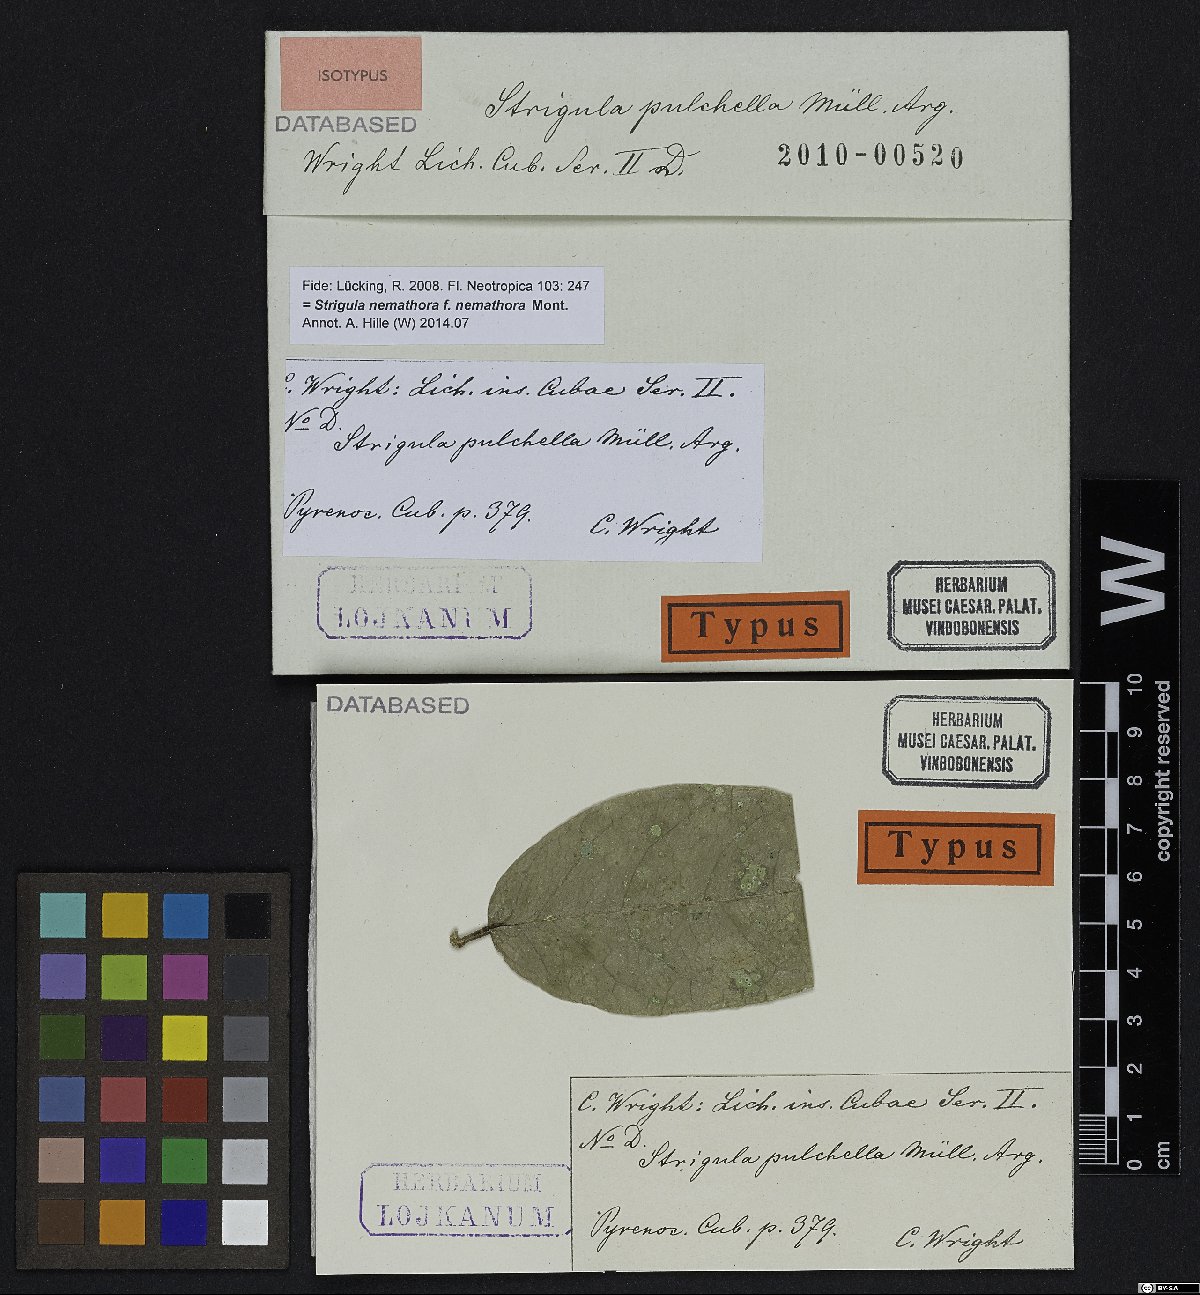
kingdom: Fungi
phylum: Ascomycota
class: Dothideomycetes
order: Strigulales
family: Strigulaceae
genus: Strigula
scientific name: Strigula
